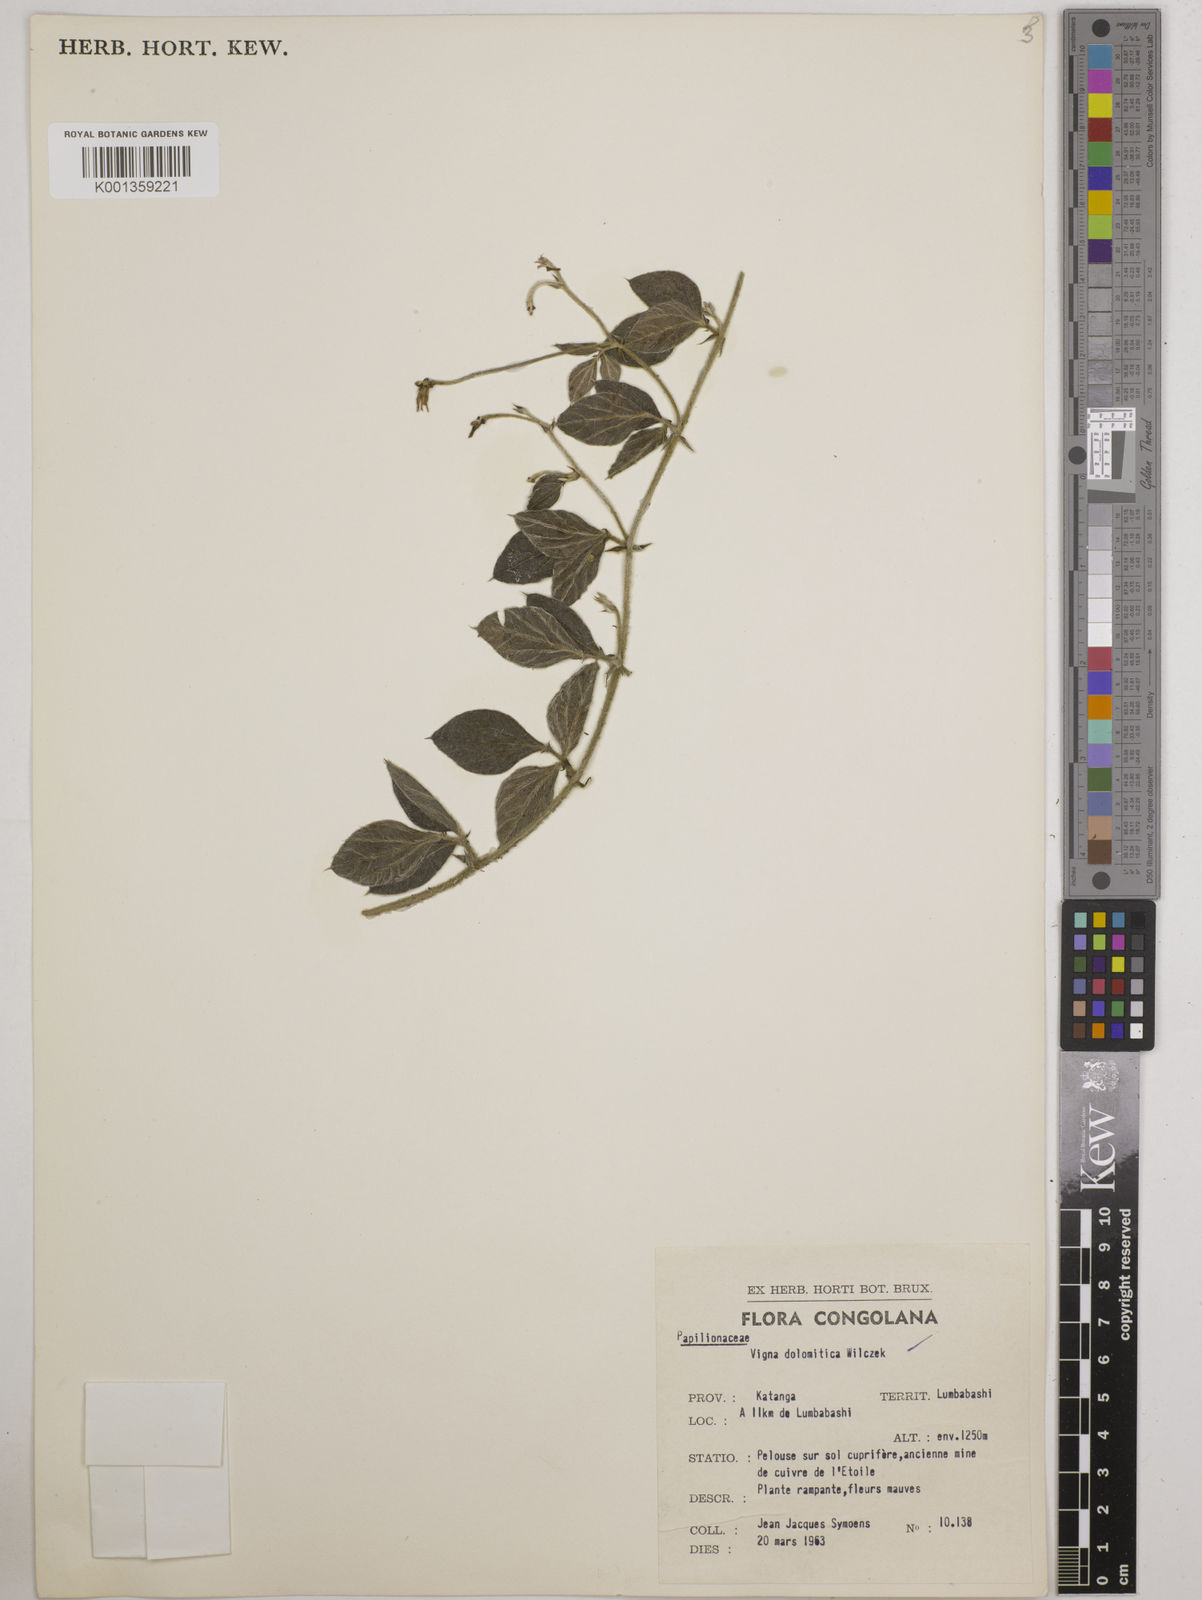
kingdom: Plantae
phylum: Tracheophyta
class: Magnoliopsida
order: Fabales
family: Fabaceae
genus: Vigna
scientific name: Vigna dolomitica
